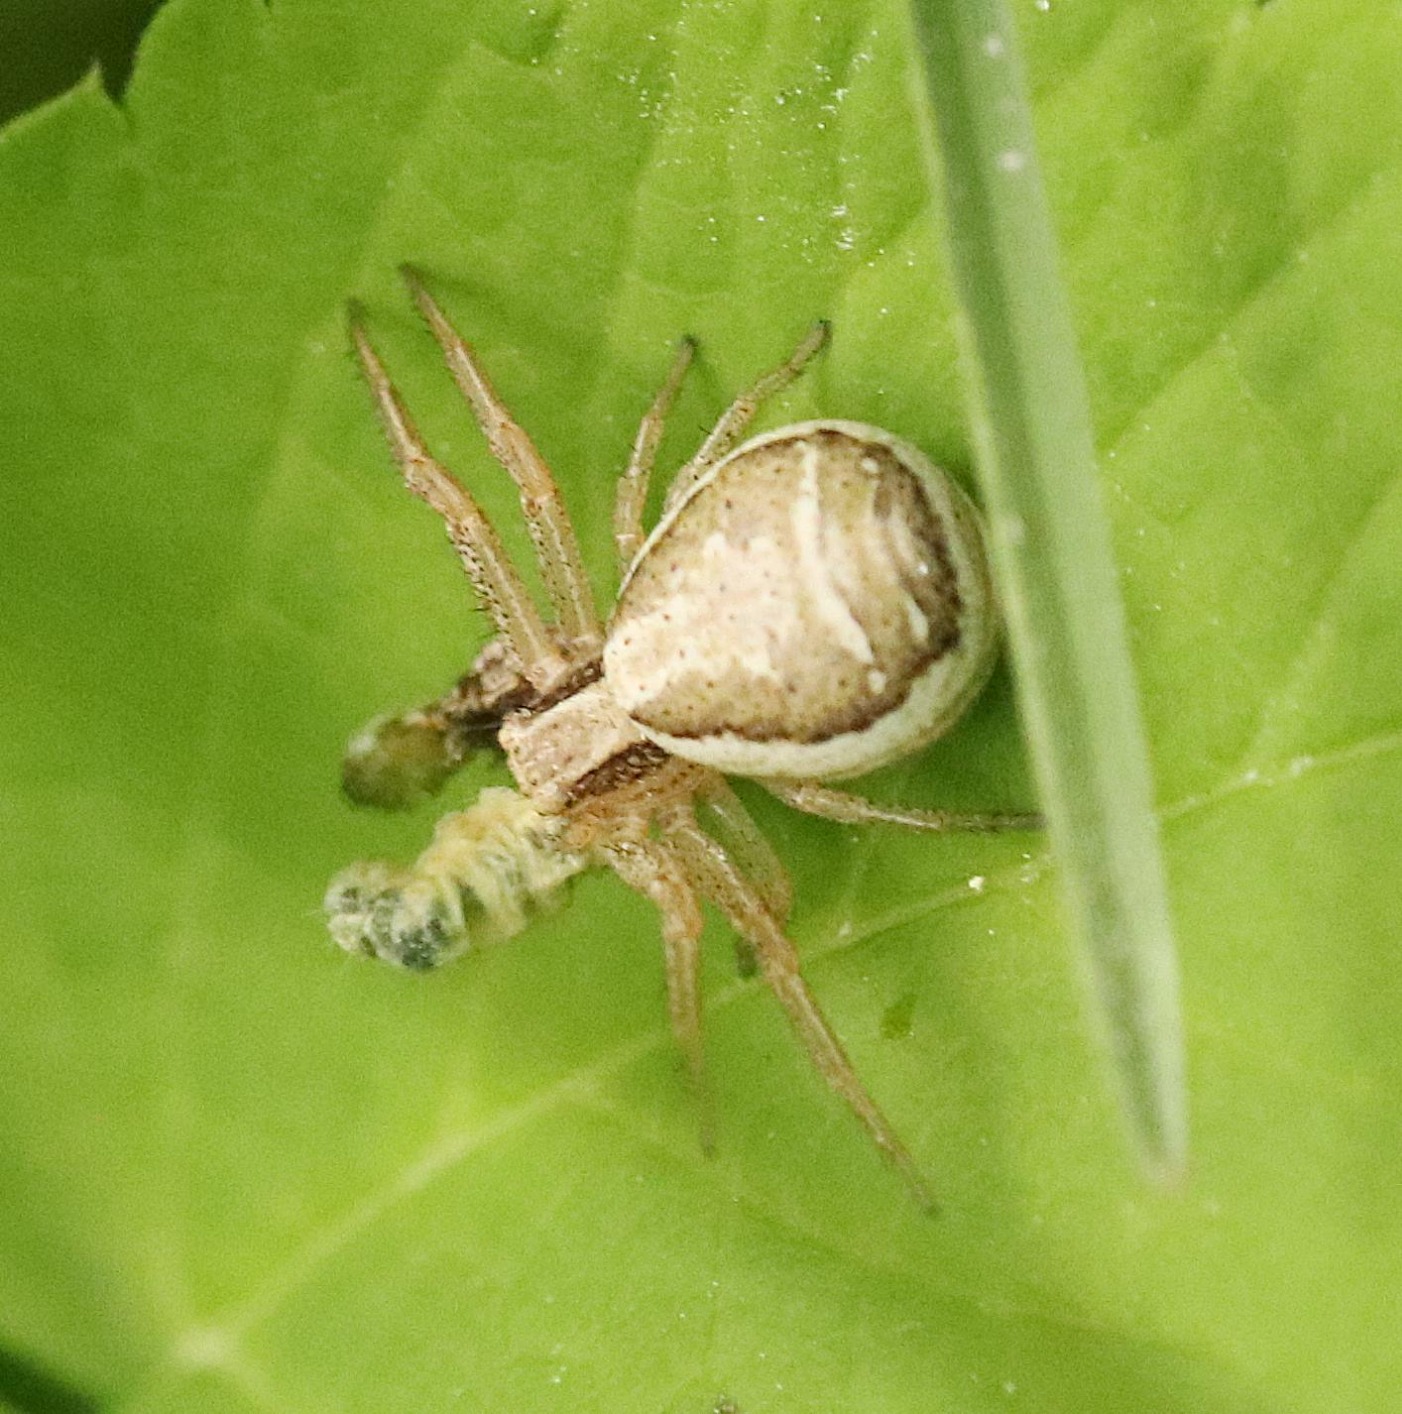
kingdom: Animalia
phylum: Arthropoda
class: Arachnida
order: Araneae
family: Thomisidae
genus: Xysticus
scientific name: Xysticus ulmi
